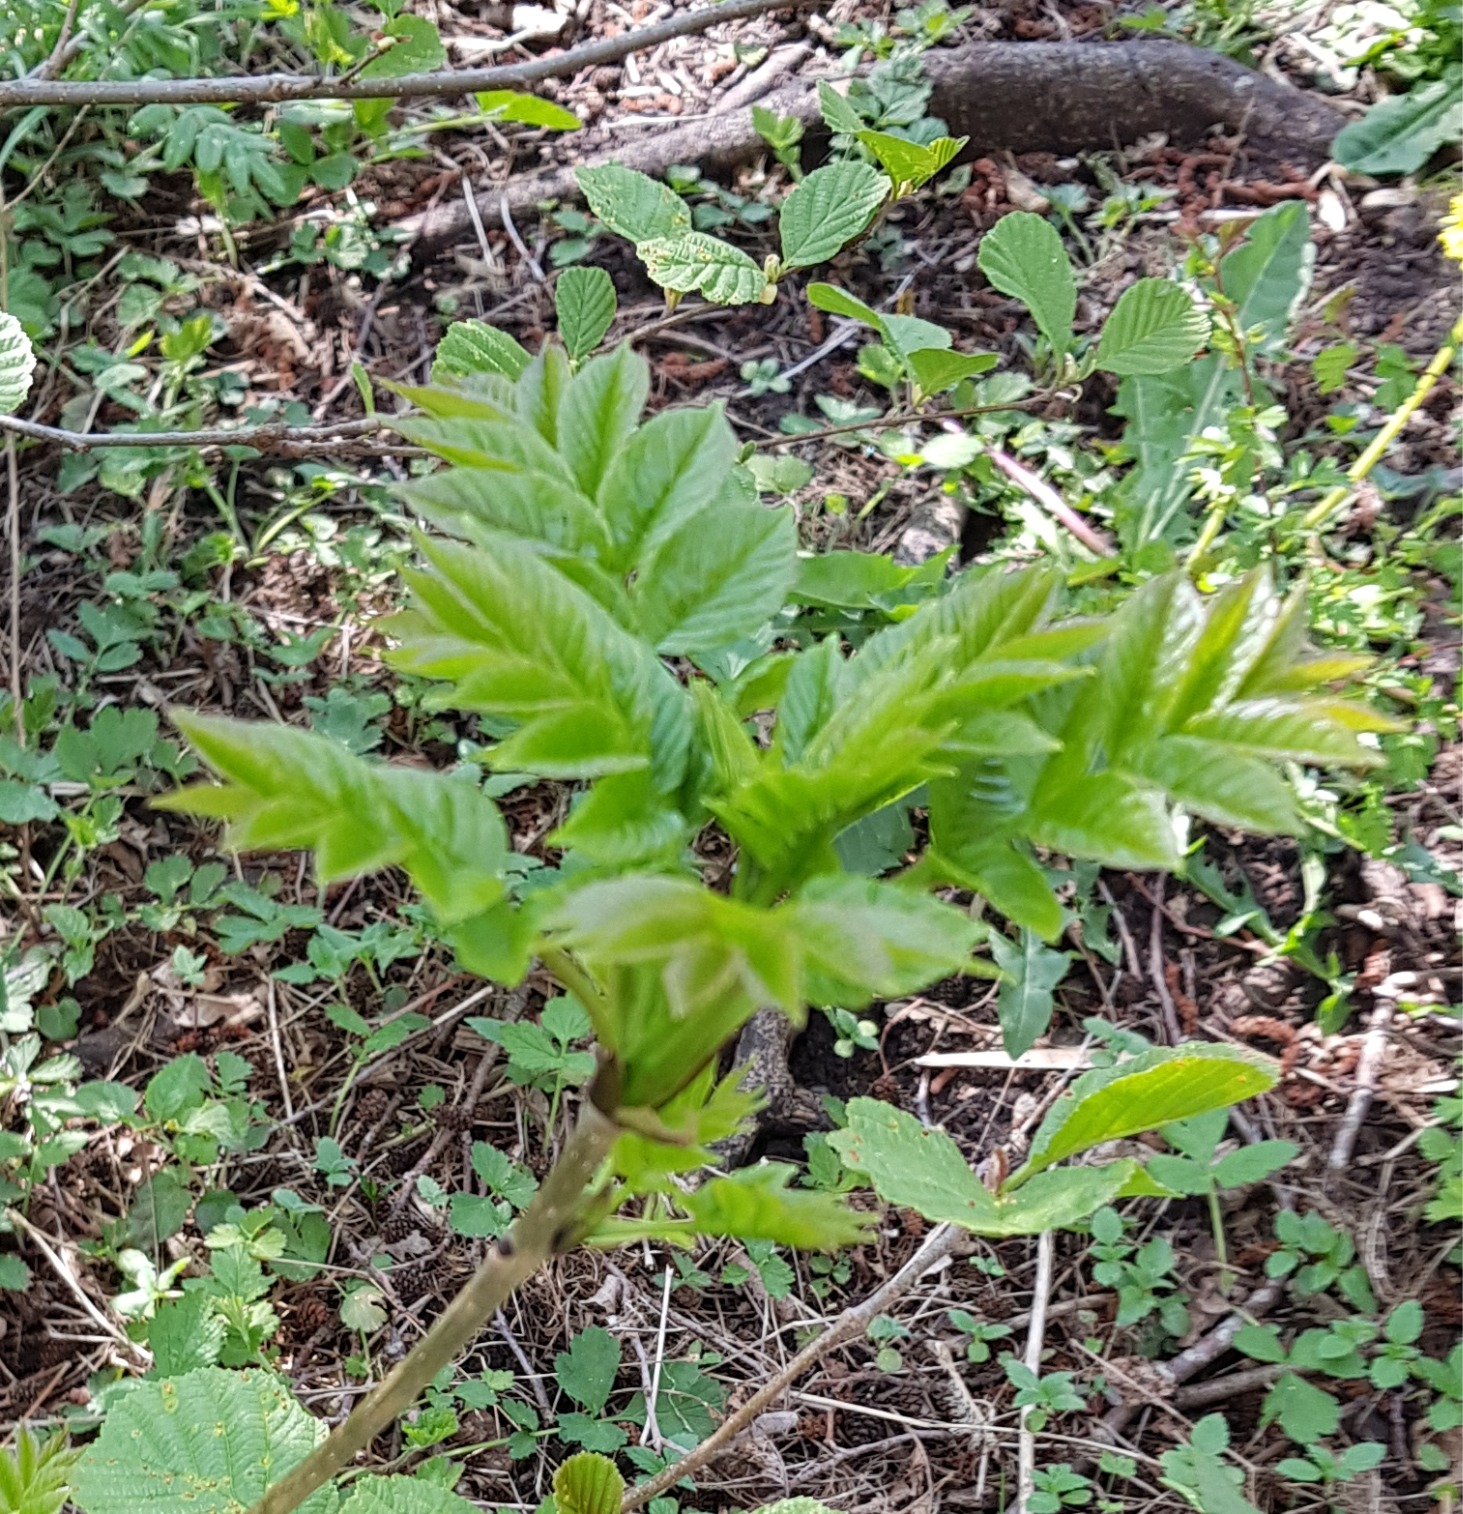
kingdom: Plantae
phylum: Tracheophyta
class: Magnoliopsida
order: Lamiales
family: Oleaceae
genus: Fraxinus
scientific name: Fraxinus excelsior
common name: Ask
